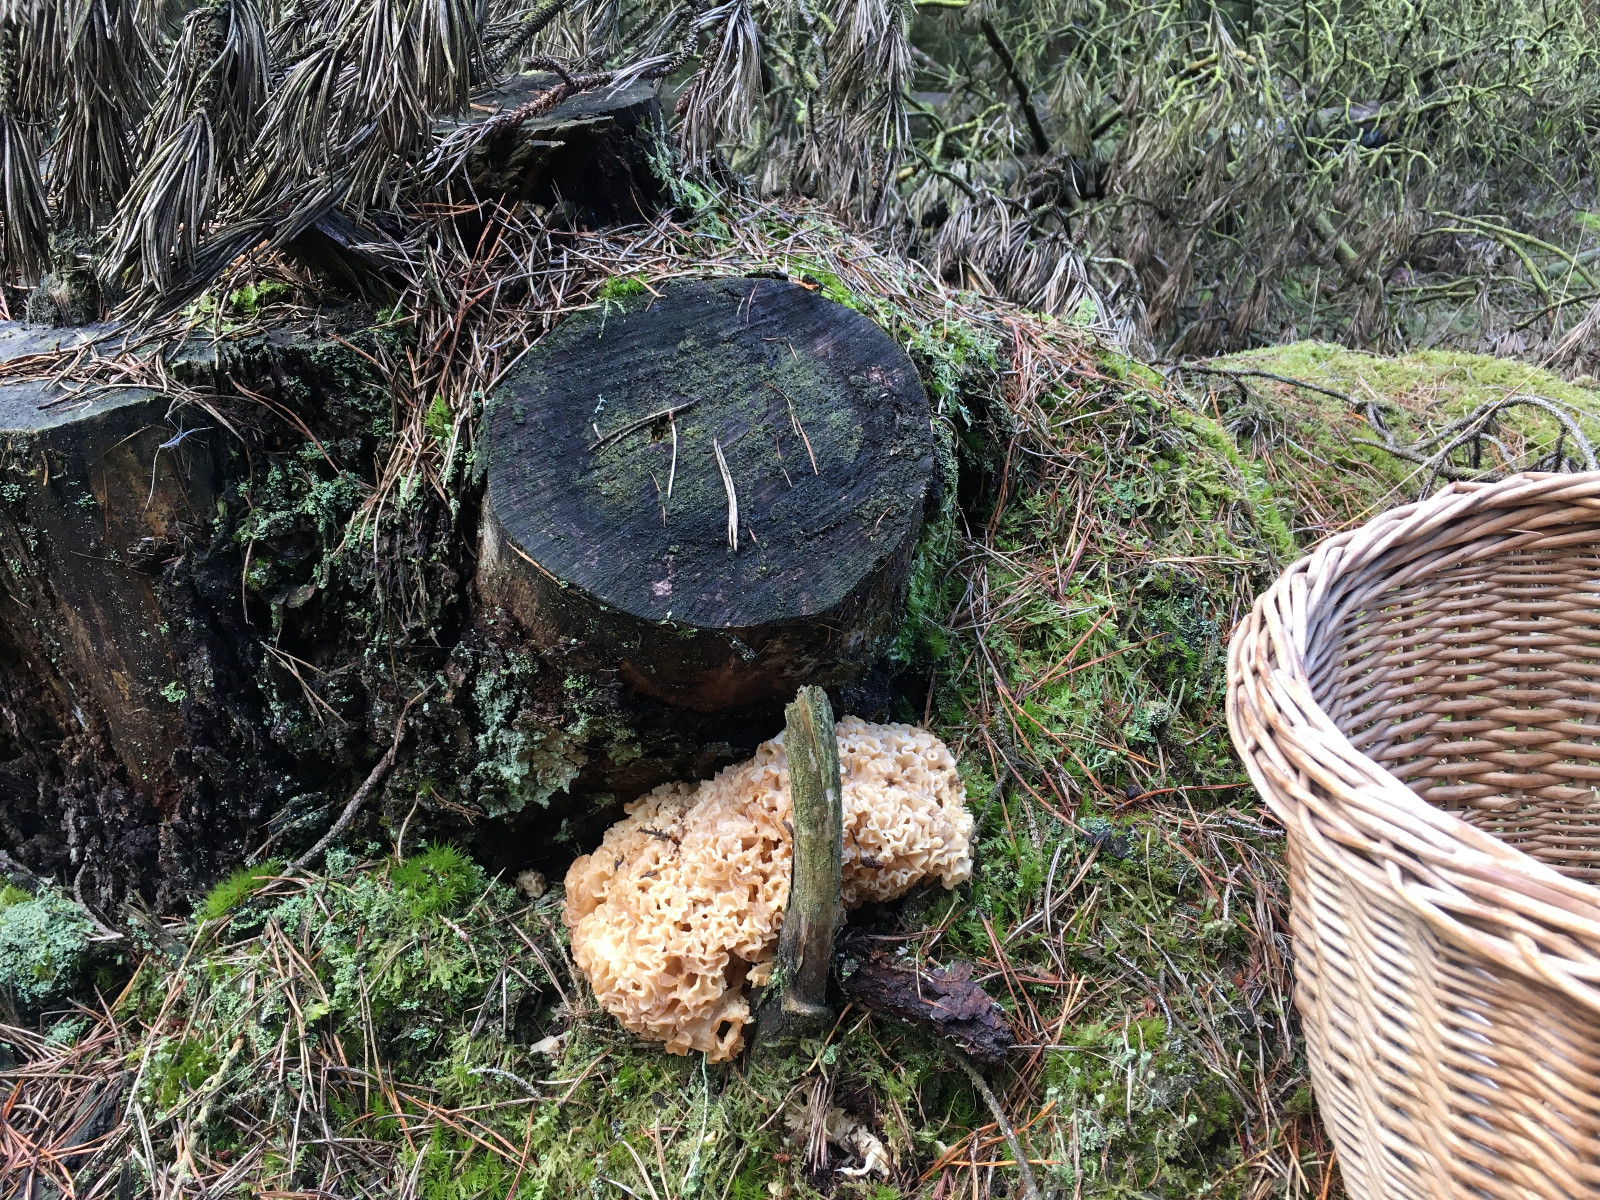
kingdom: Fungi
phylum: Basidiomycota
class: Agaricomycetes
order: Polyporales
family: Sparassidaceae
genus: Sparassis
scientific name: Sparassis crispa
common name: kruset blomkålssvamp
